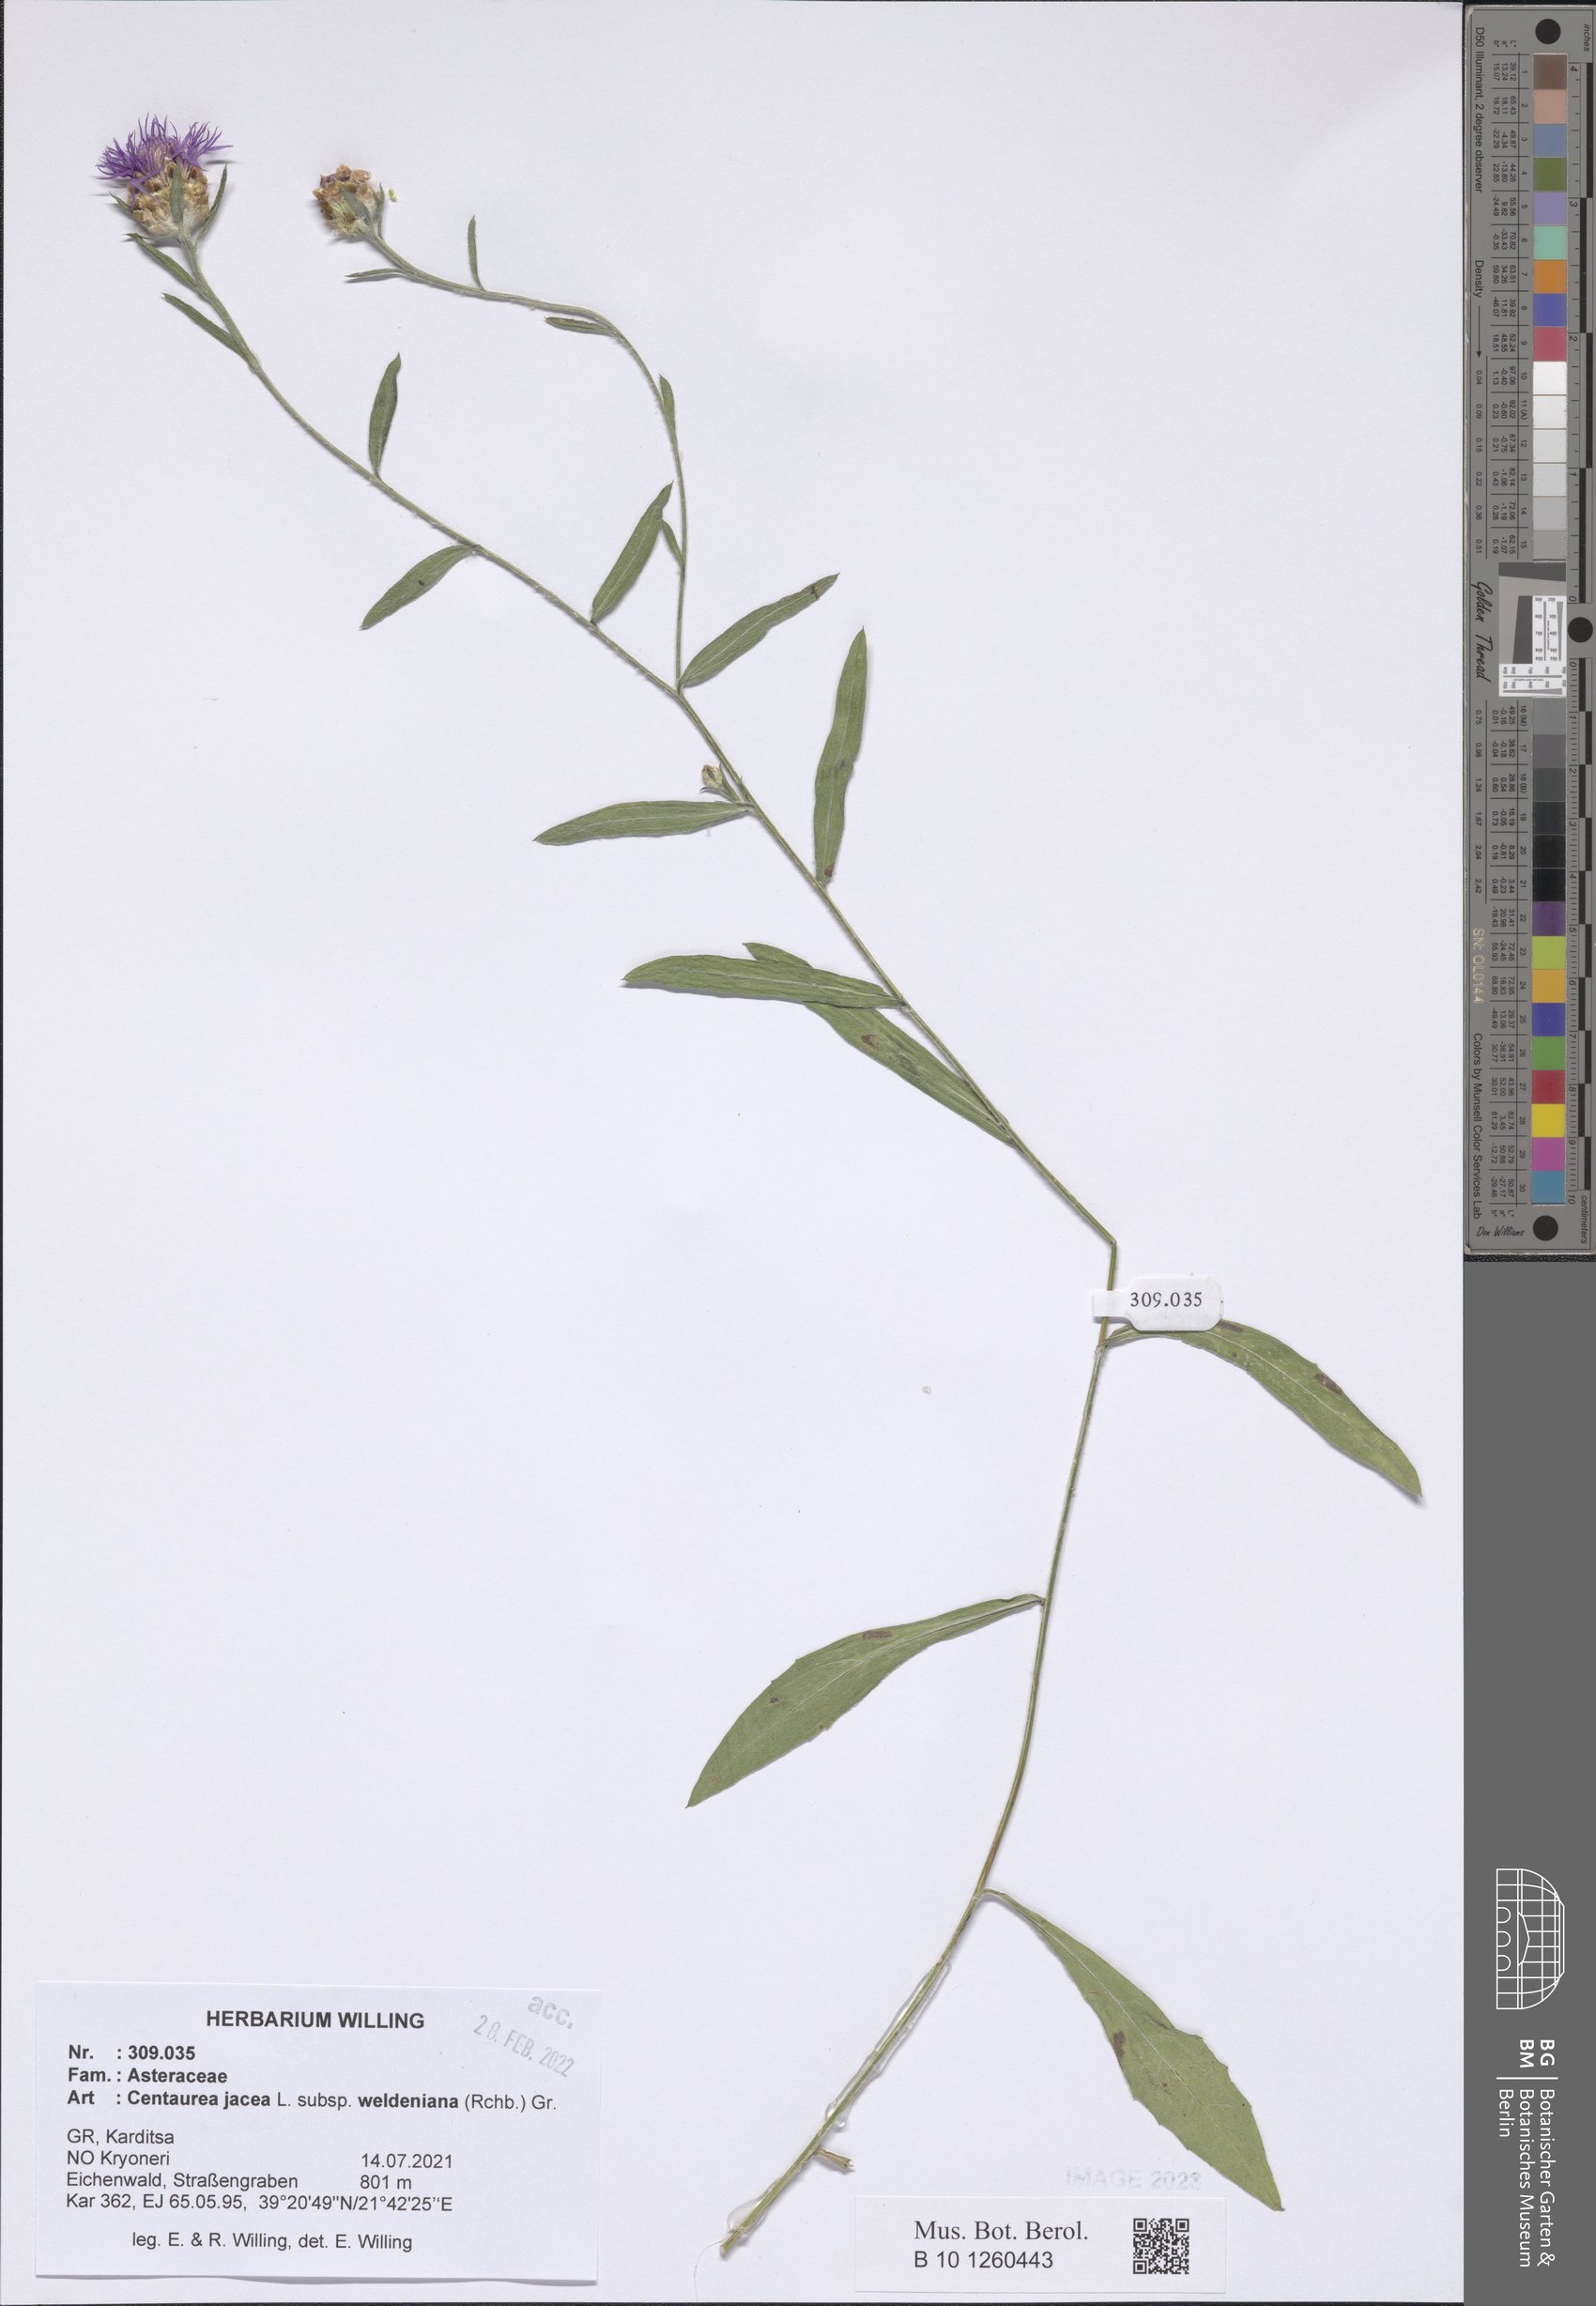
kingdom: Plantae
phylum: Tracheophyta
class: Magnoliopsida
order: Asterales
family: Asteraceae
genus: Centaurea
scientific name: Centaurea jacea
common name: Brown knapweed
